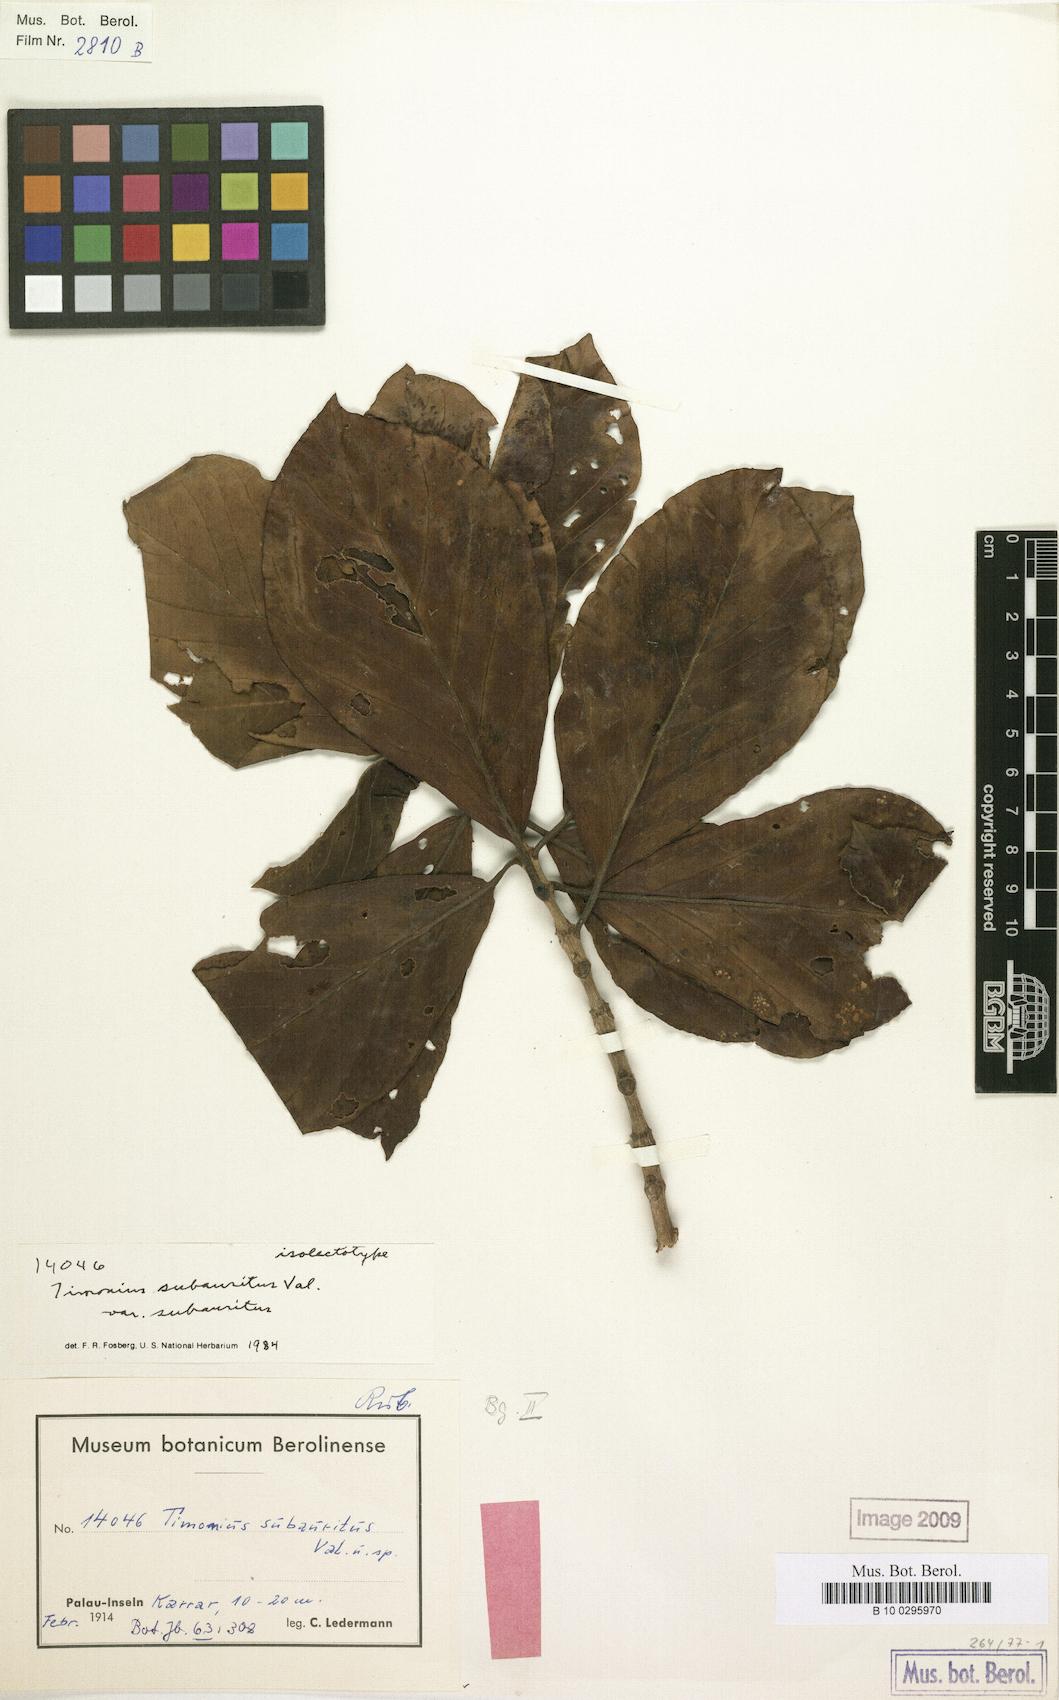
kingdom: Plantae
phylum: Tracheophyta
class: Magnoliopsida
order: Gentianales
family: Rubiaceae
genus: Timonius
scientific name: Timonius subauritus
